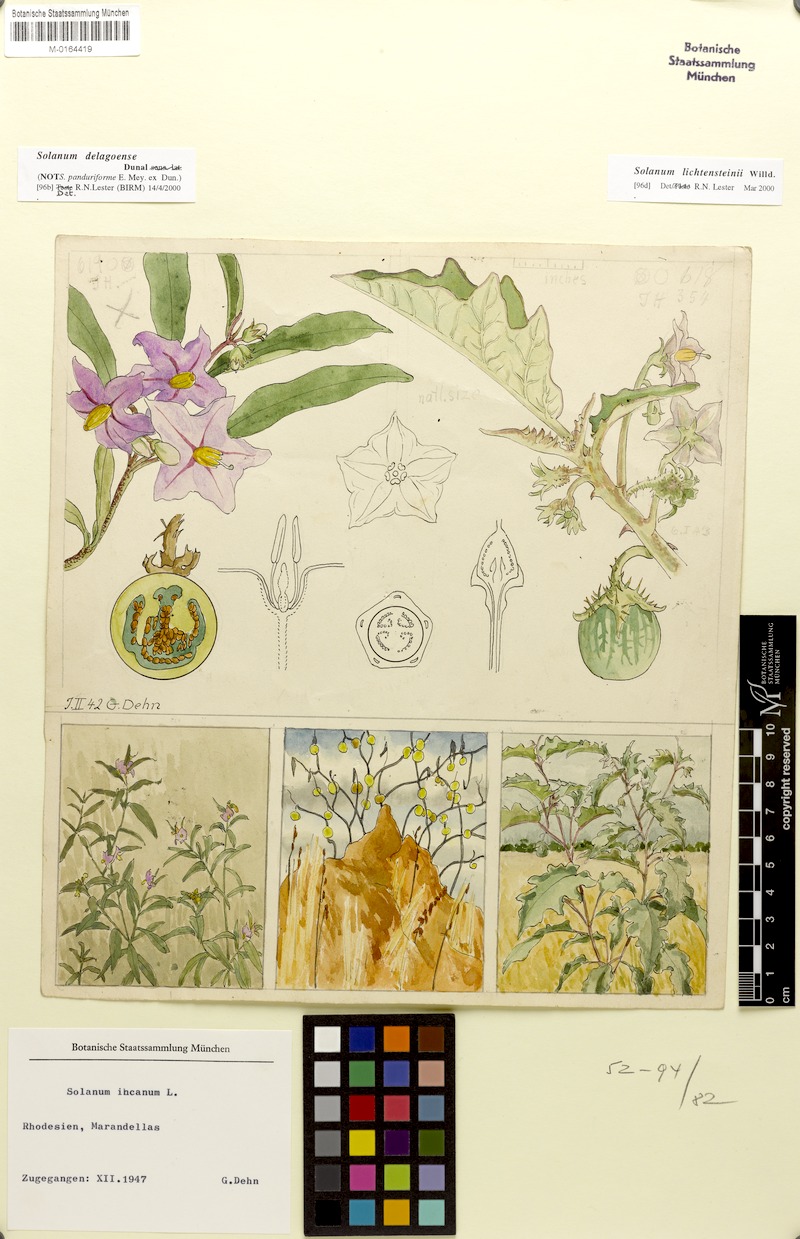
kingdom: Plantae
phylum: Tracheophyta
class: Magnoliopsida
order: Solanales
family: Solanaceae
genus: Solanum
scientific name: Solanum lichtensteinii
